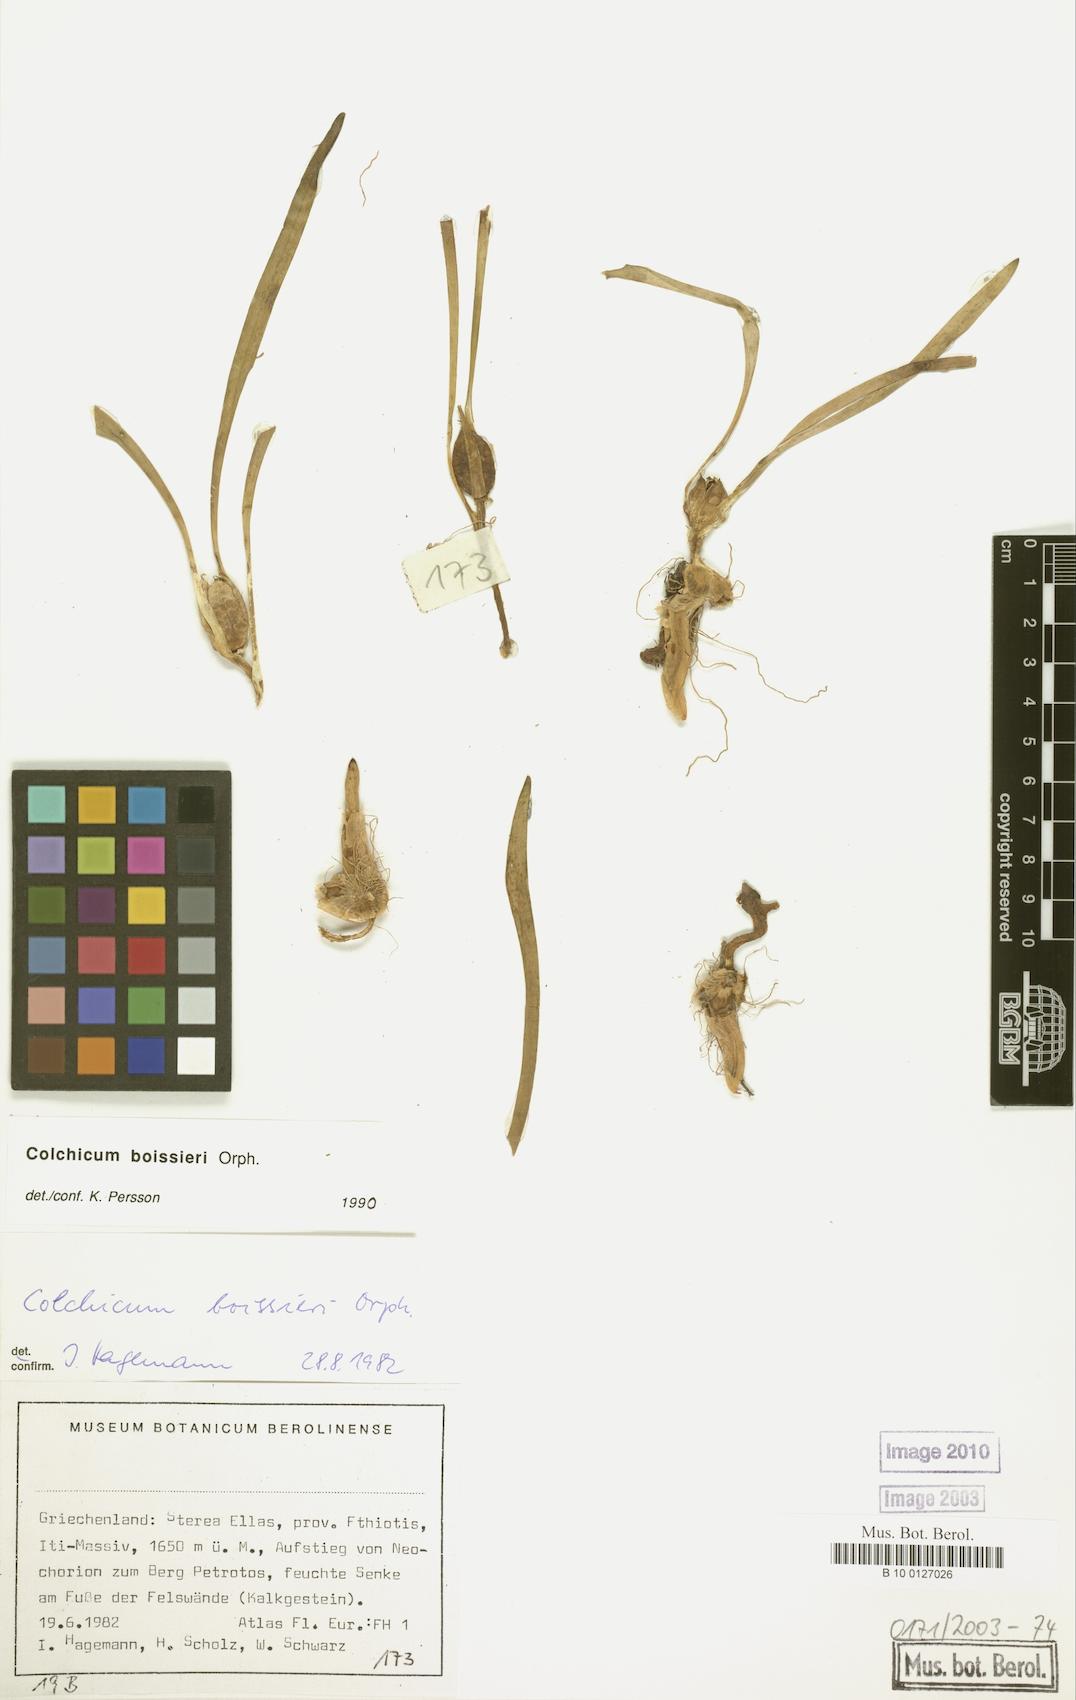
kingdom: Plantae
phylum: Tracheophyta
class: Liliopsida
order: Liliales
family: Colchicaceae
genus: Colchicum
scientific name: Colchicum boissieri
